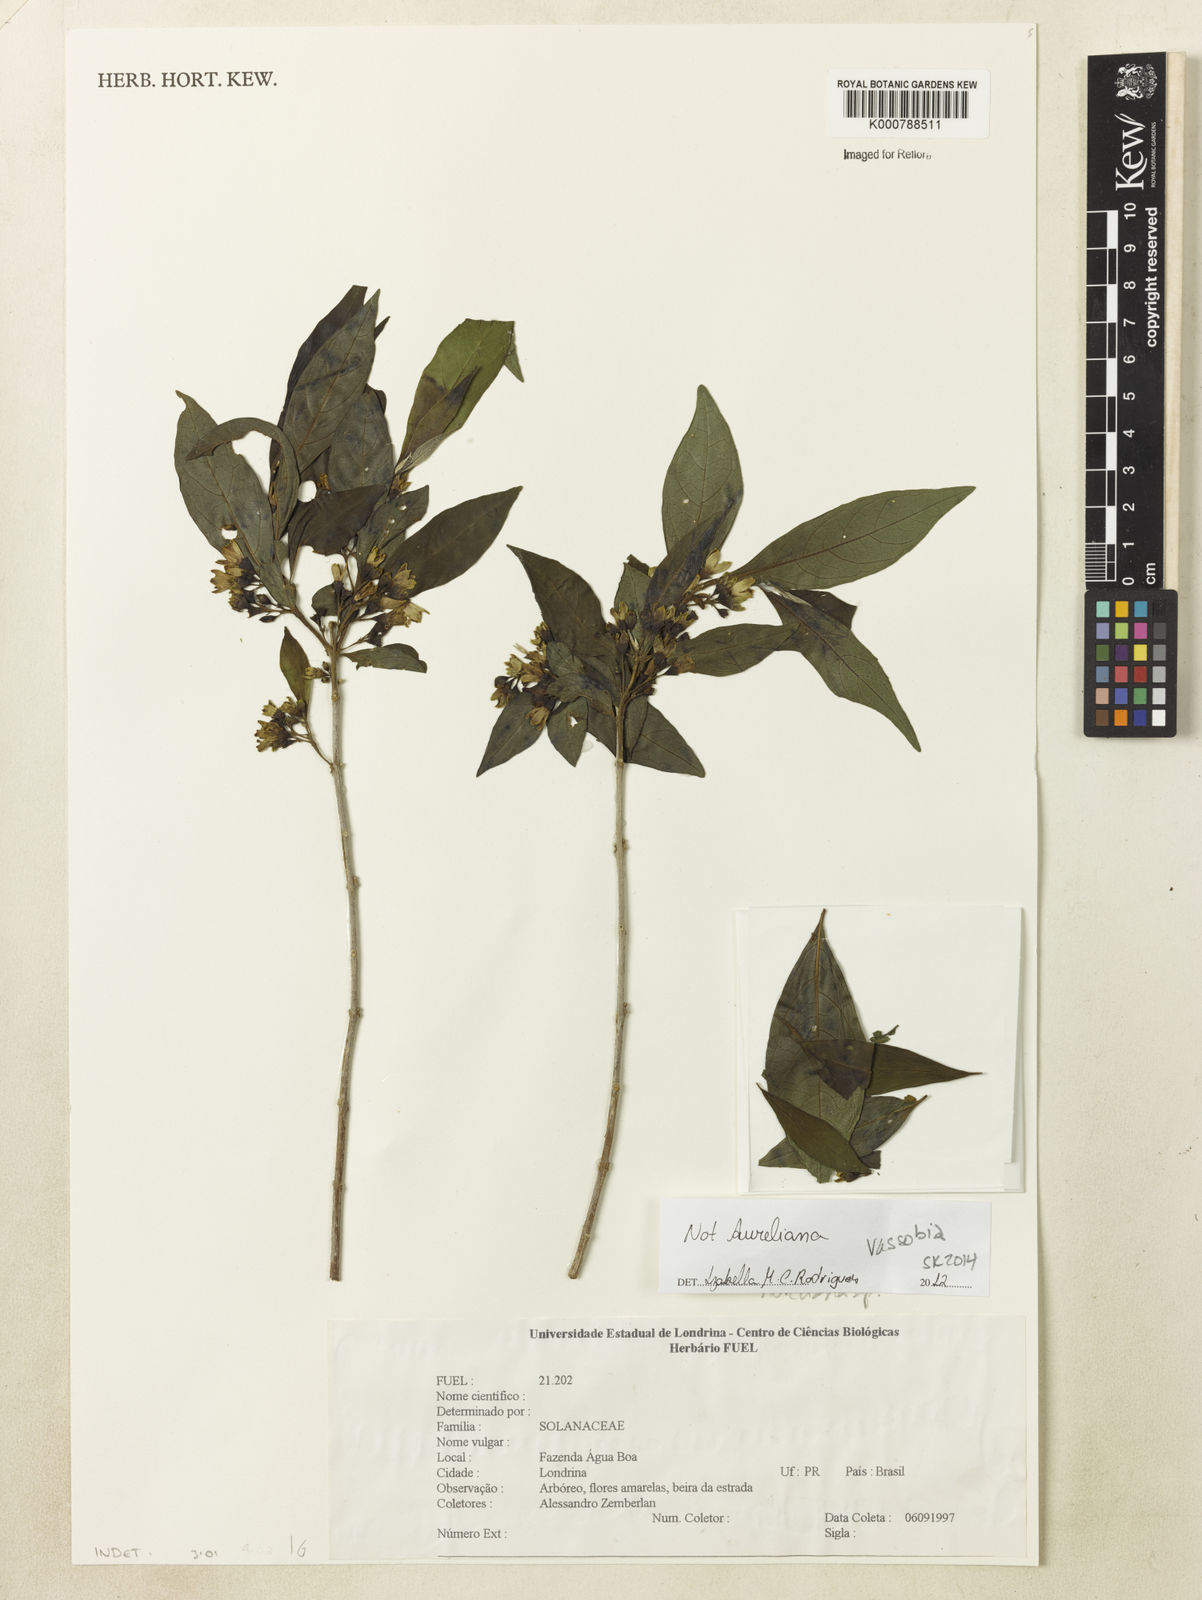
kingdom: Plantae
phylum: Tracheophyta
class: Magnoliopsida
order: Solanales
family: Solanaceae
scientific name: Solanaceae
